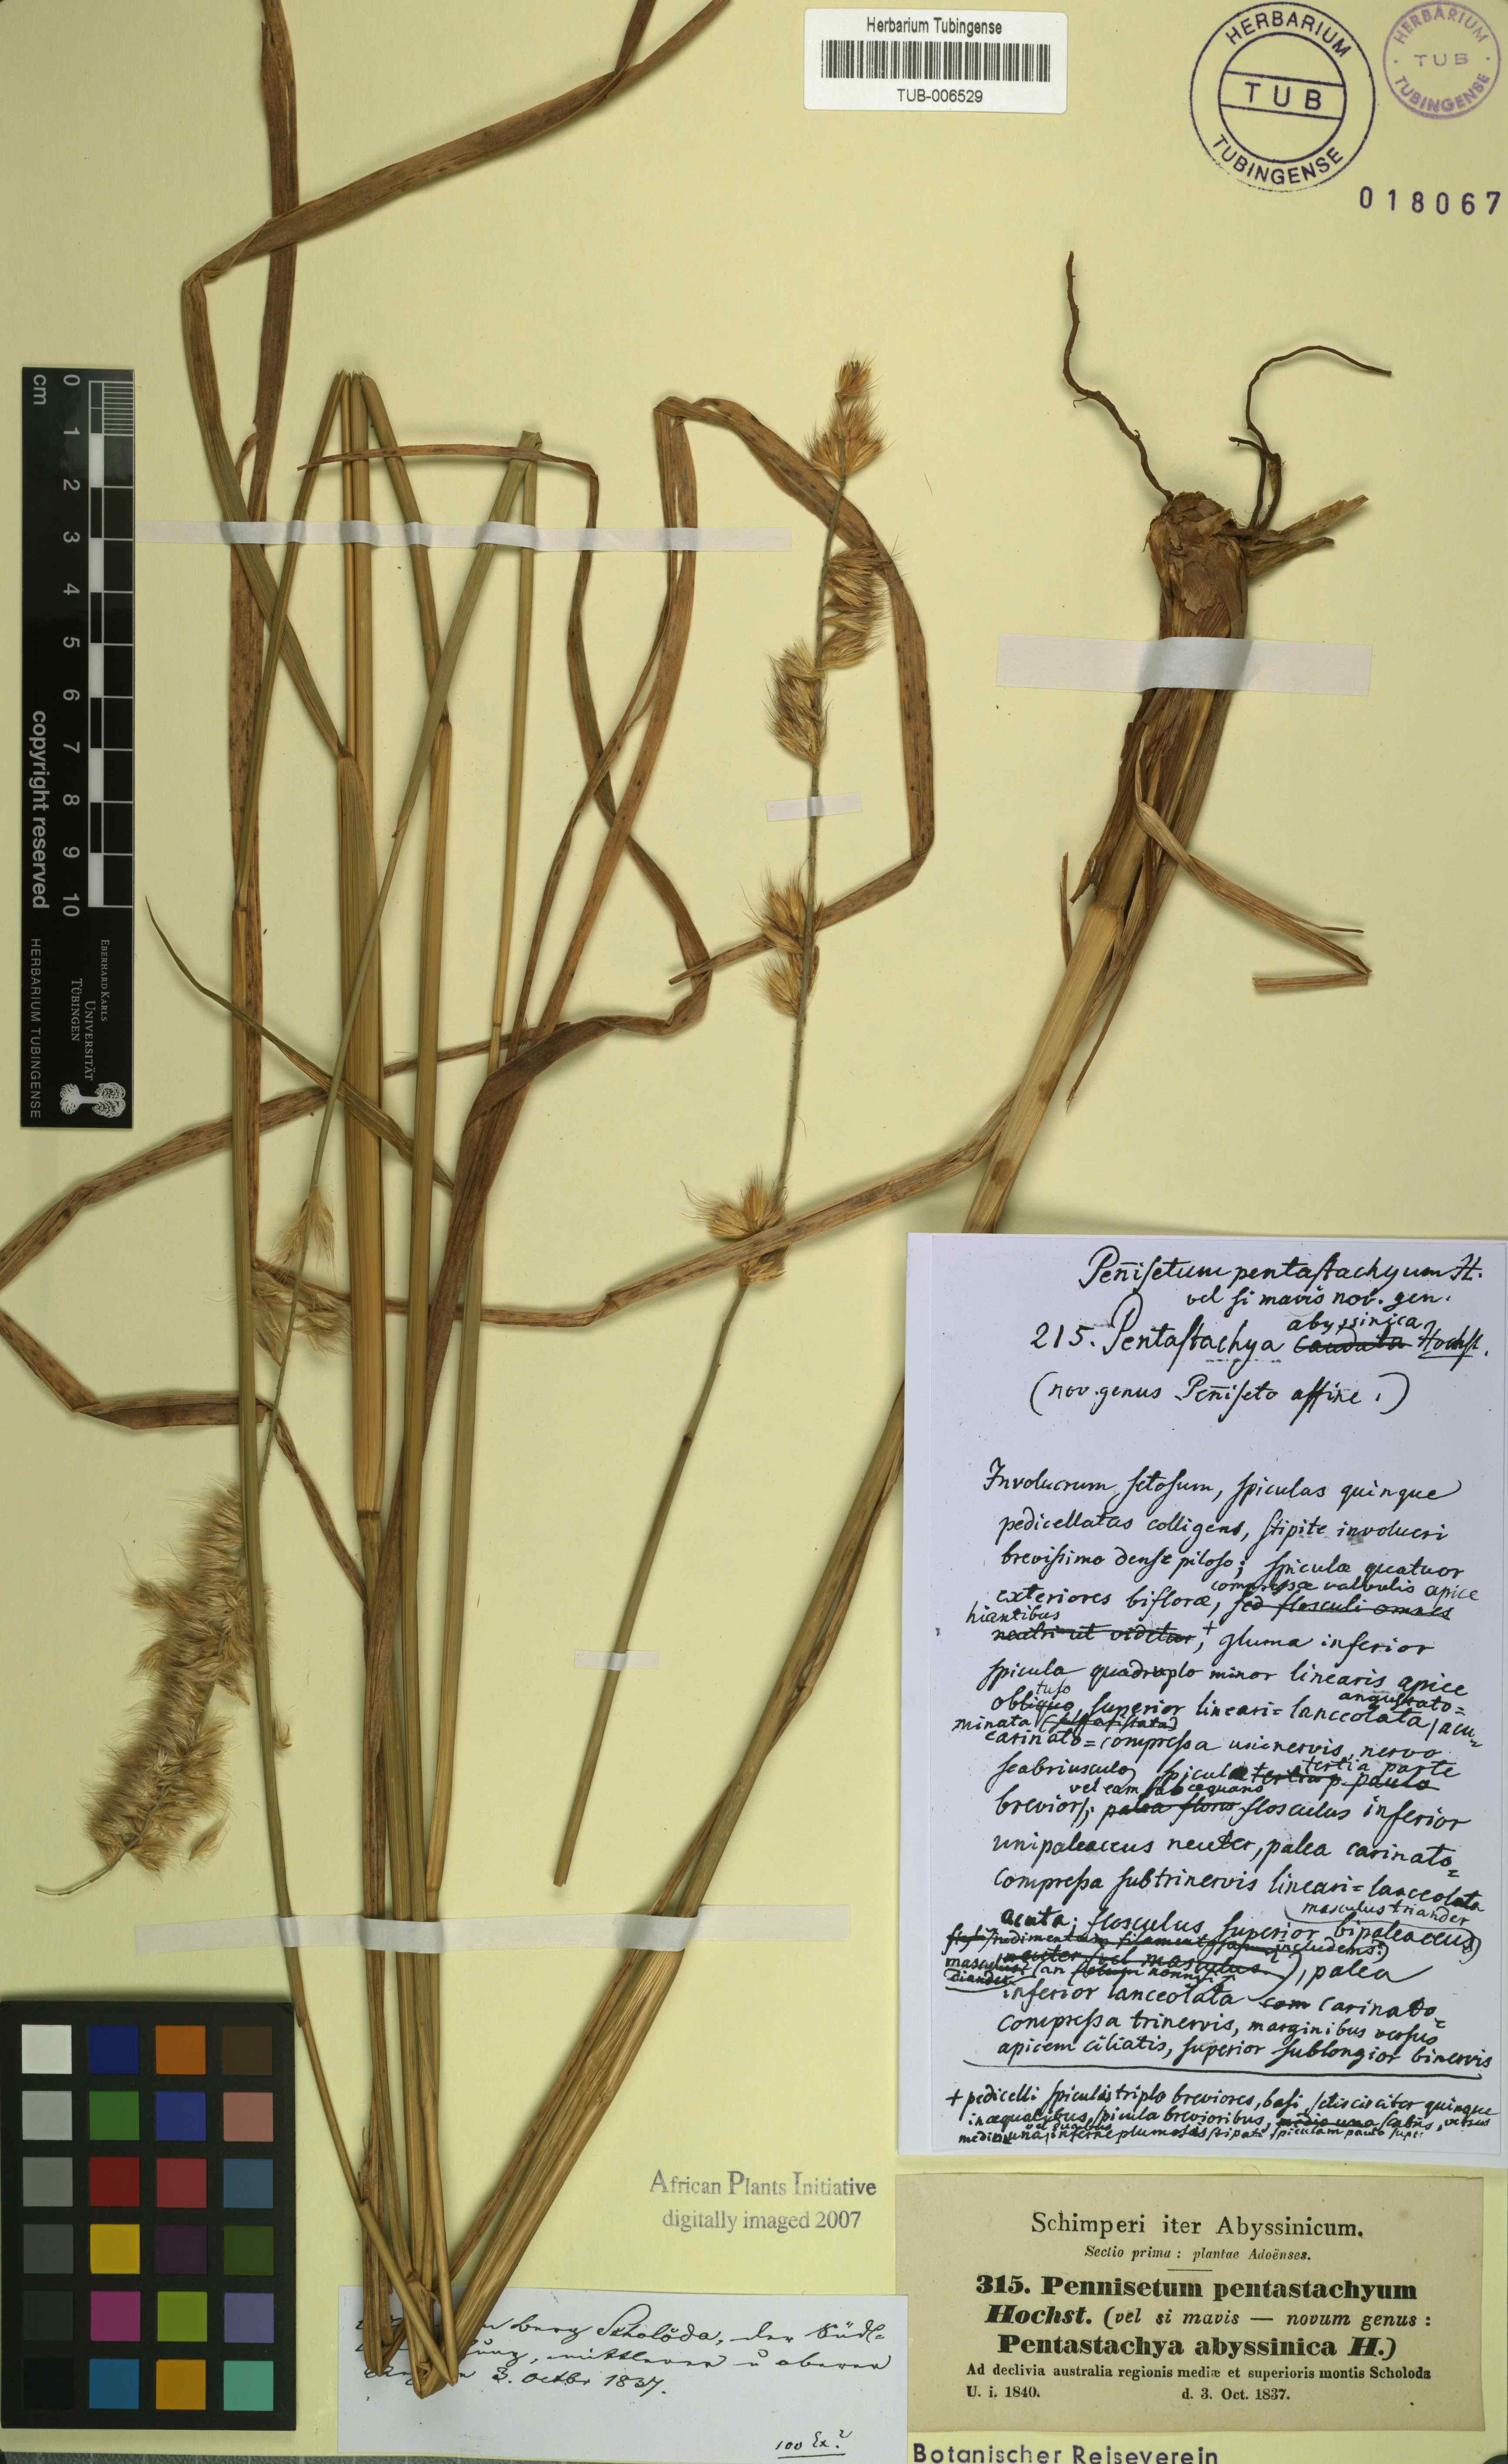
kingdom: Plantae
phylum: Tracheophyta
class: Liliopsida
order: Poales
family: Poaceae
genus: Cenchrus
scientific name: Cenchrus squamulatus
